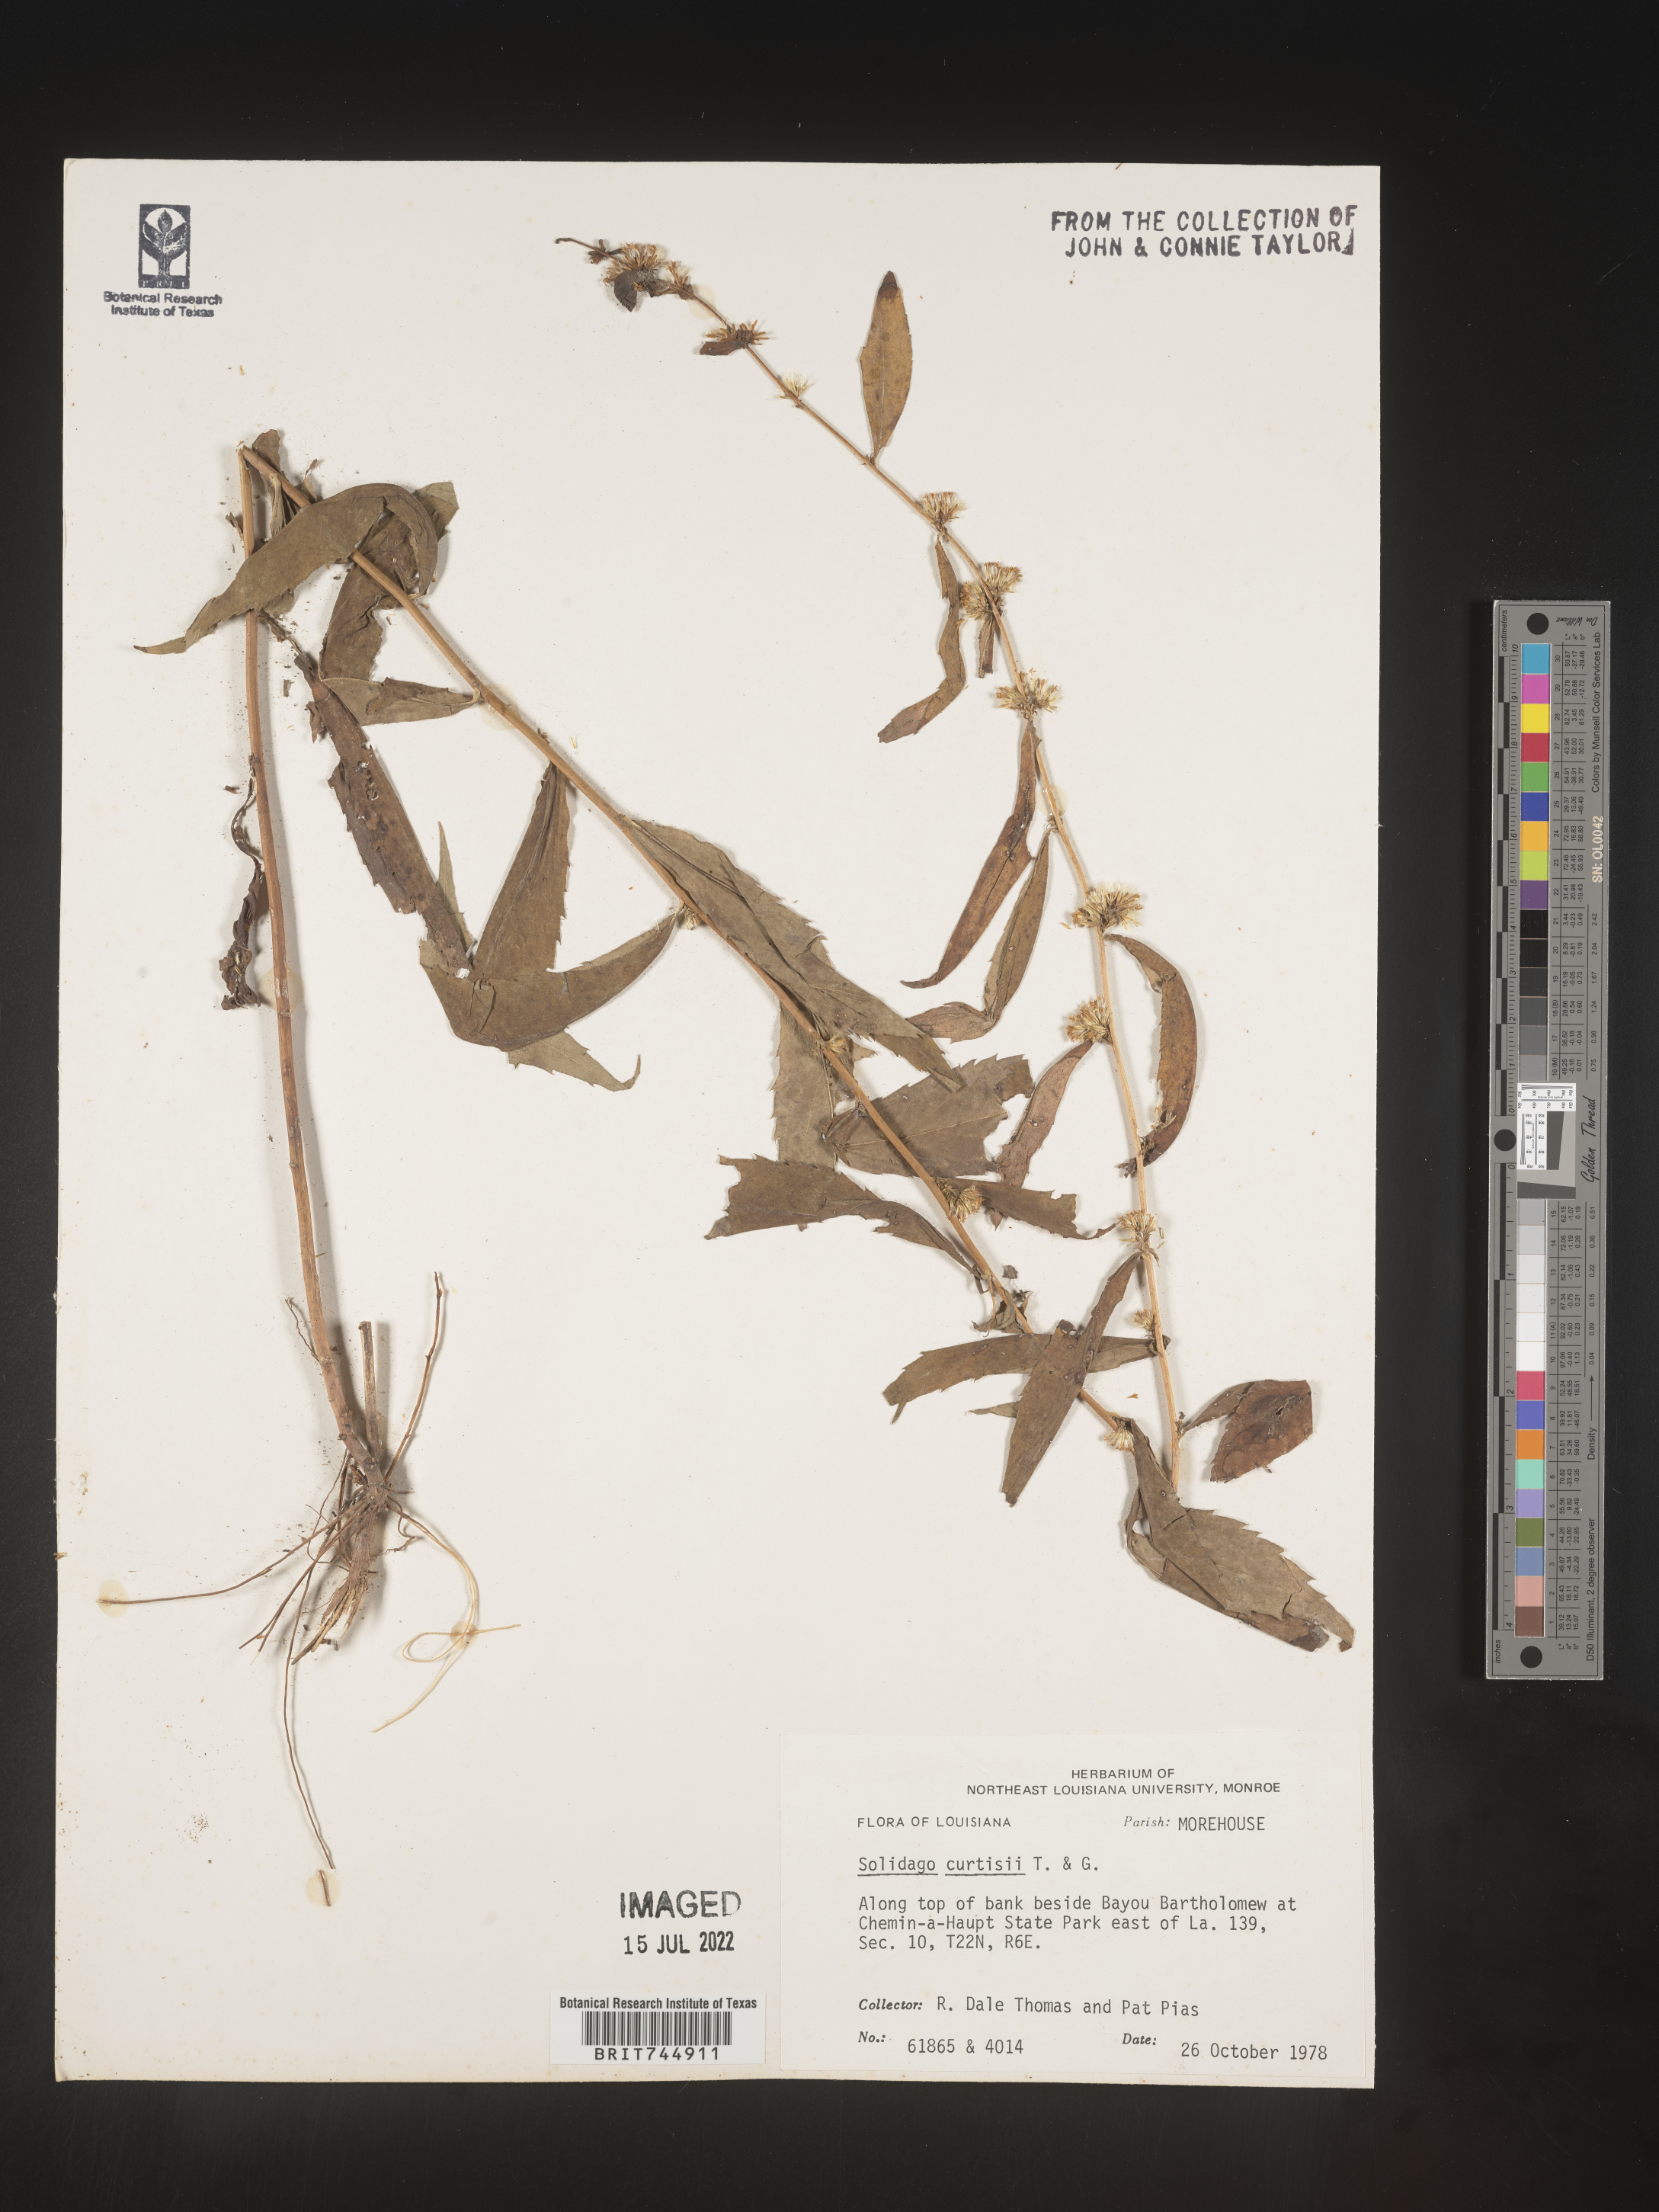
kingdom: Plantae
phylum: Tracheophyta
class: Magnoliopsida
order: Asterales
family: Asteraceae
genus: Solidago
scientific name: Solidago curtisii
